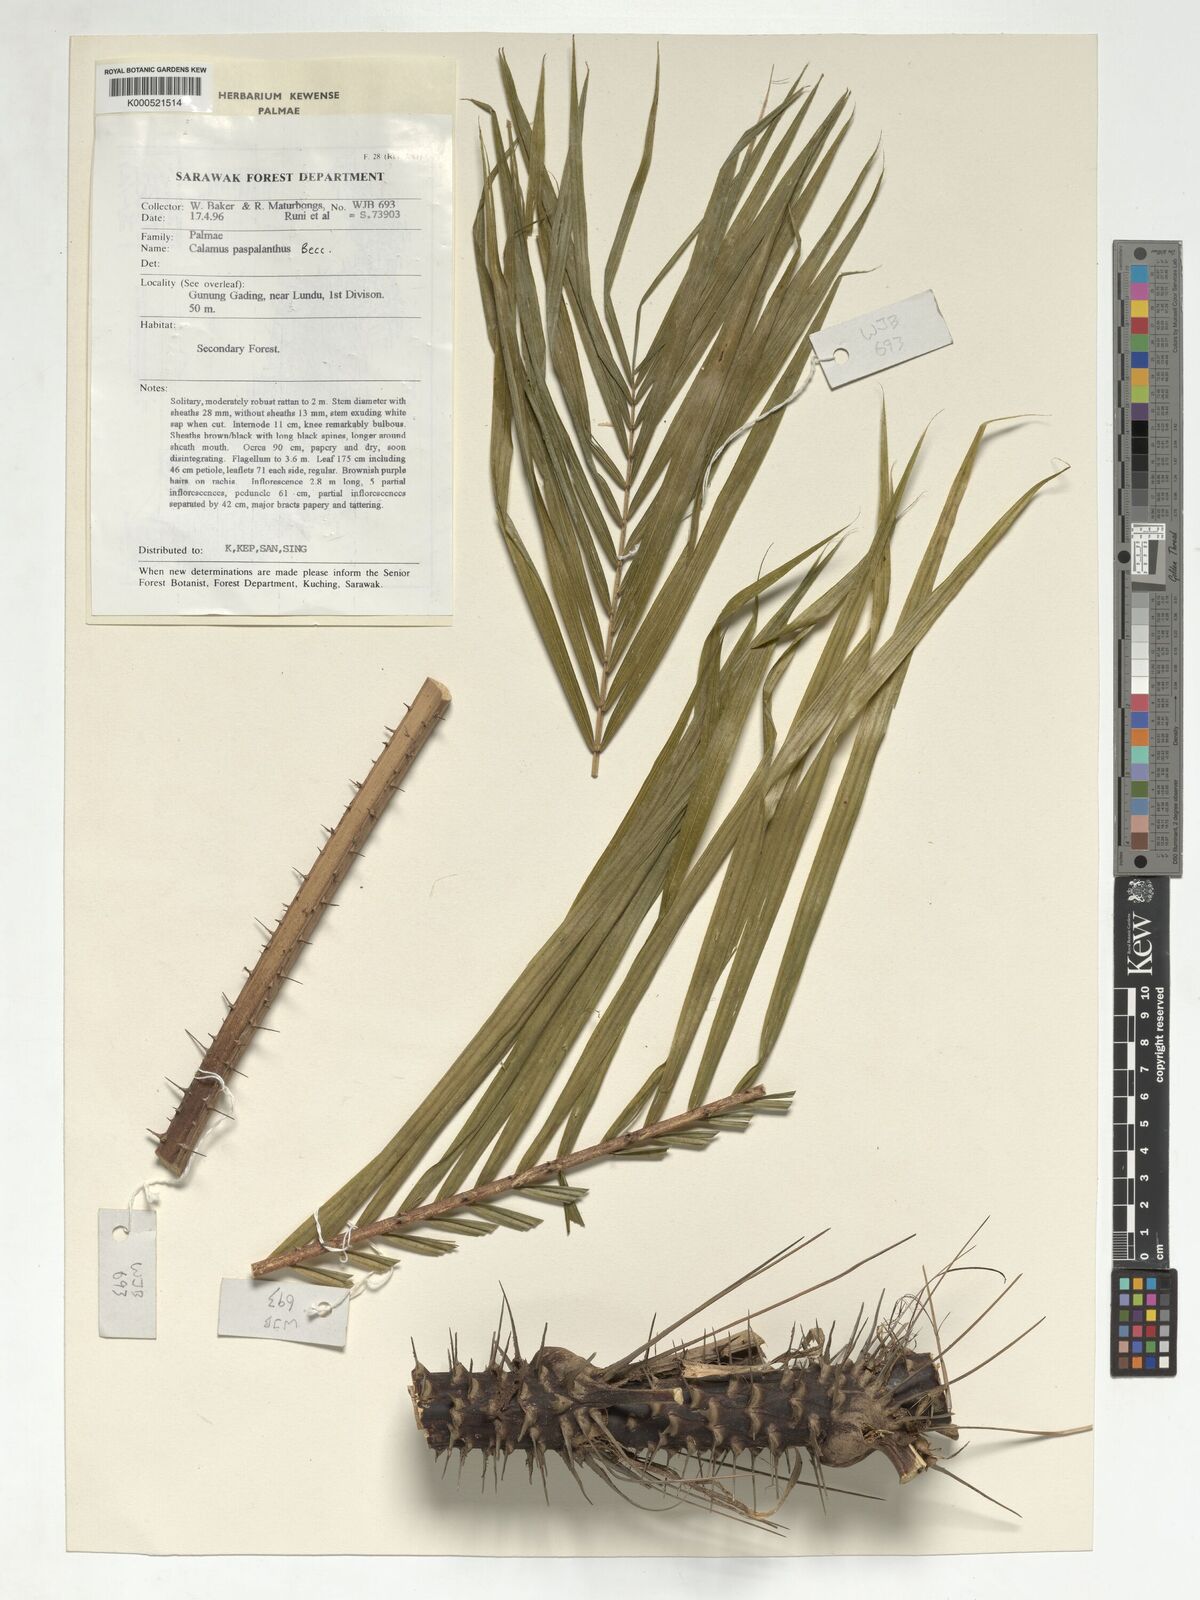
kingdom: Plantae
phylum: Tracheophyta
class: Liliopsida
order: Arecales
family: Arecaceae
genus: Calamus
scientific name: Calamus paspalanthus
